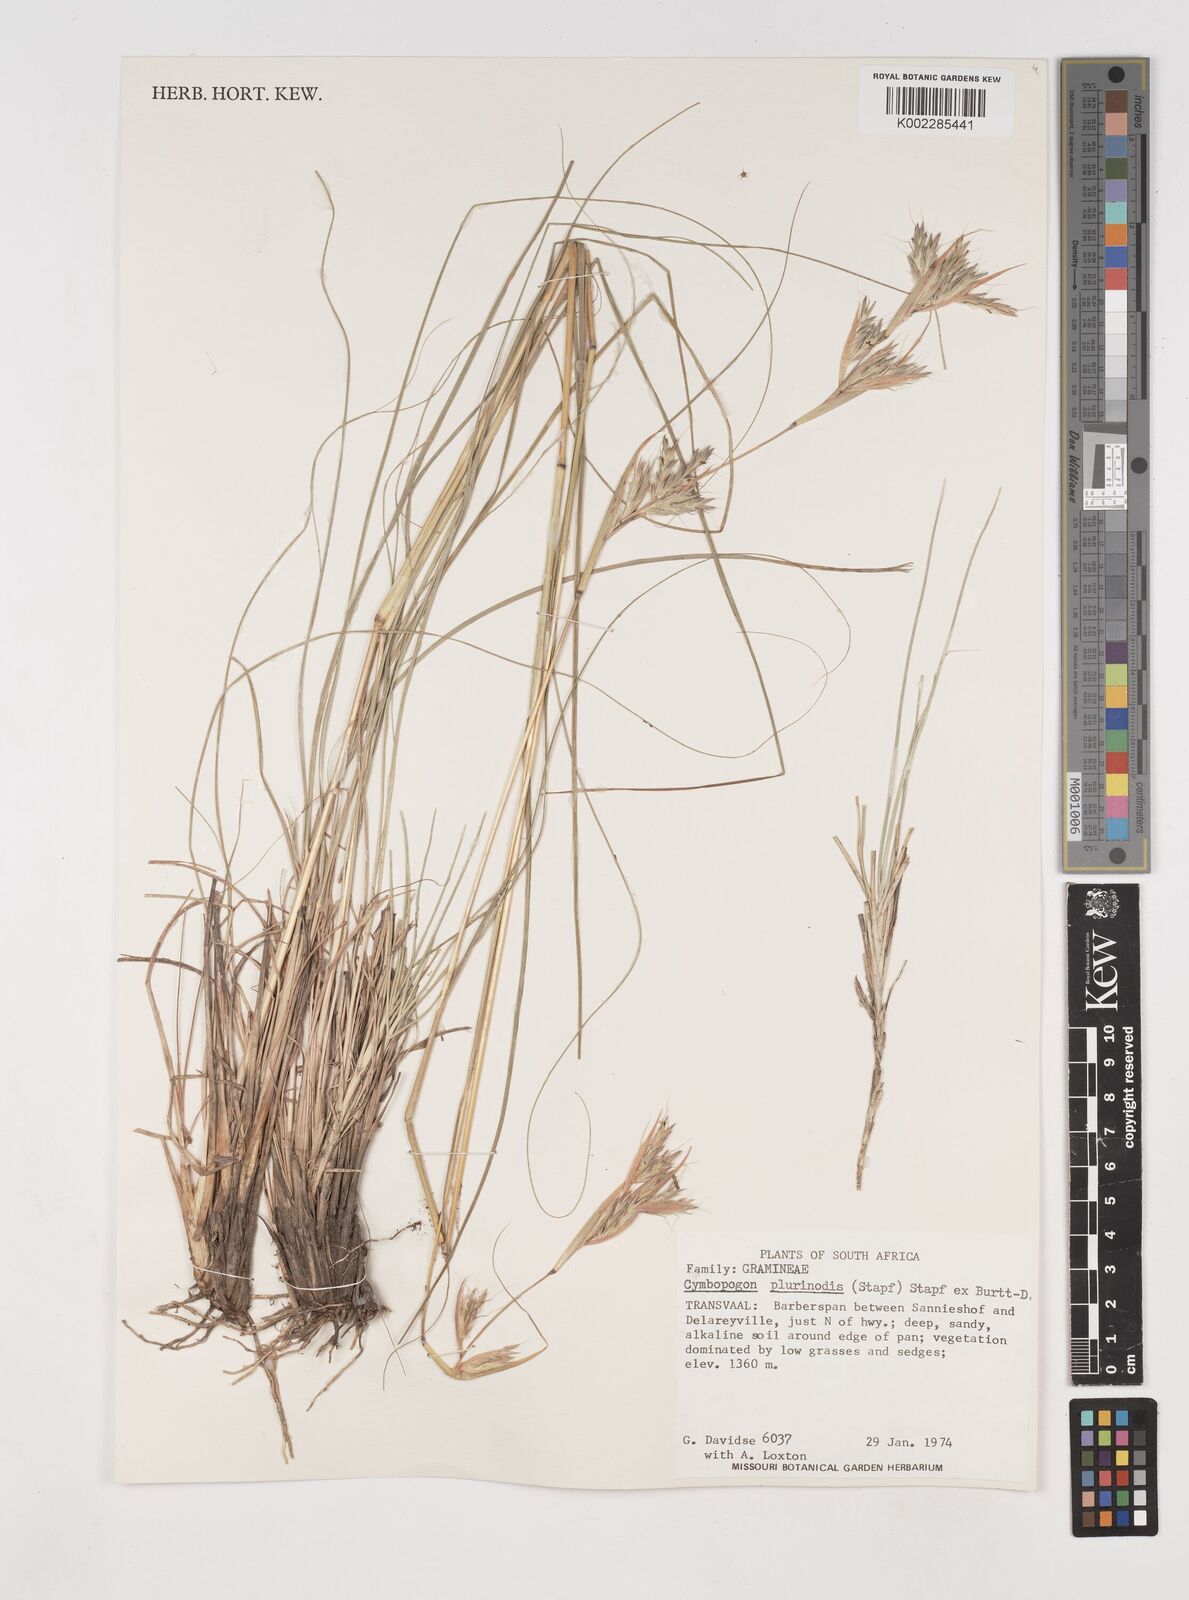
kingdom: Plantae
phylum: Tracheophyta
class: Liliopsida
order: Poales
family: Poaceae
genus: Cymbopogon
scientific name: Cymbopogon
